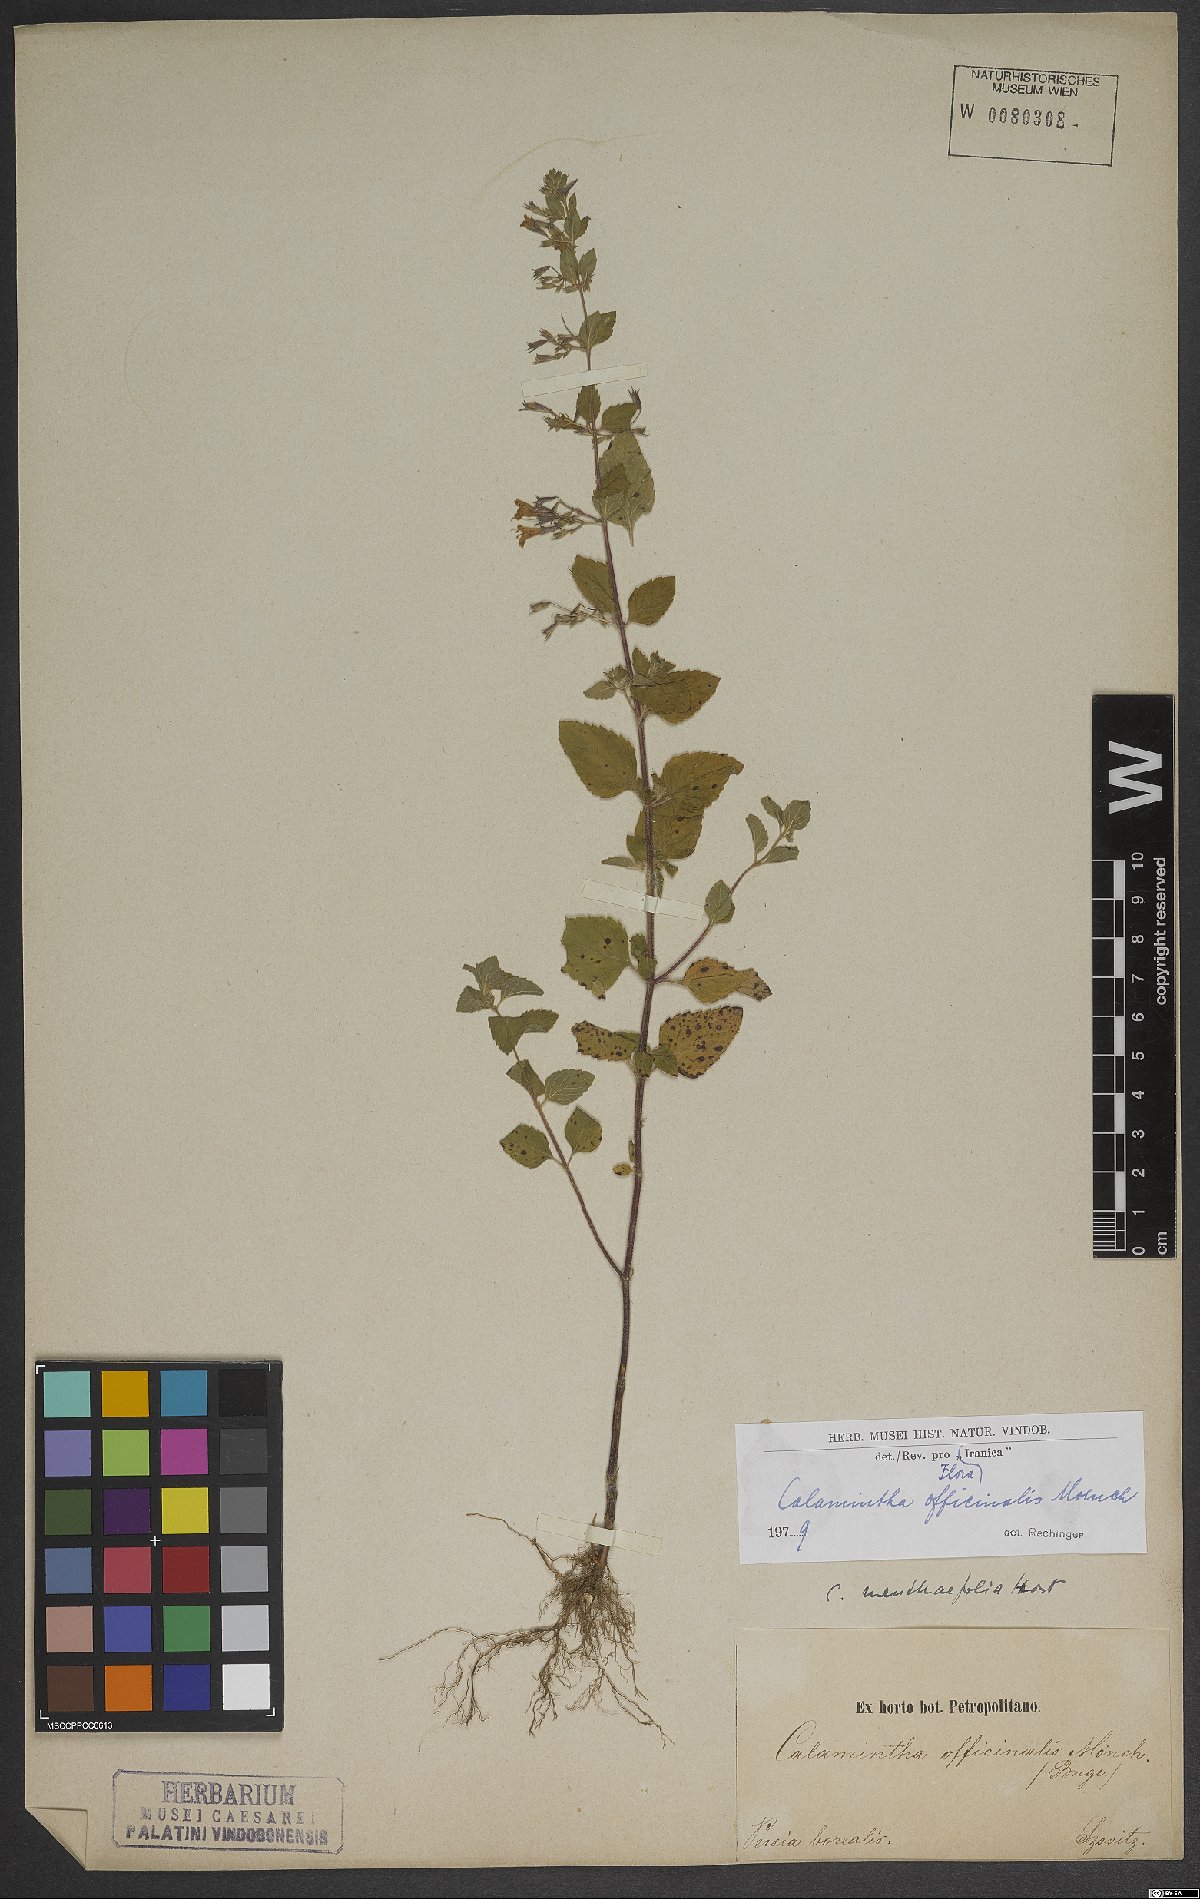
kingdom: Plantae
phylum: Tracheophyta
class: Magnoliopsida
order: Lamiales
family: Lamiaceae
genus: Clinopodium
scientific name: Clinopodium nepeta
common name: Lesser calamint
